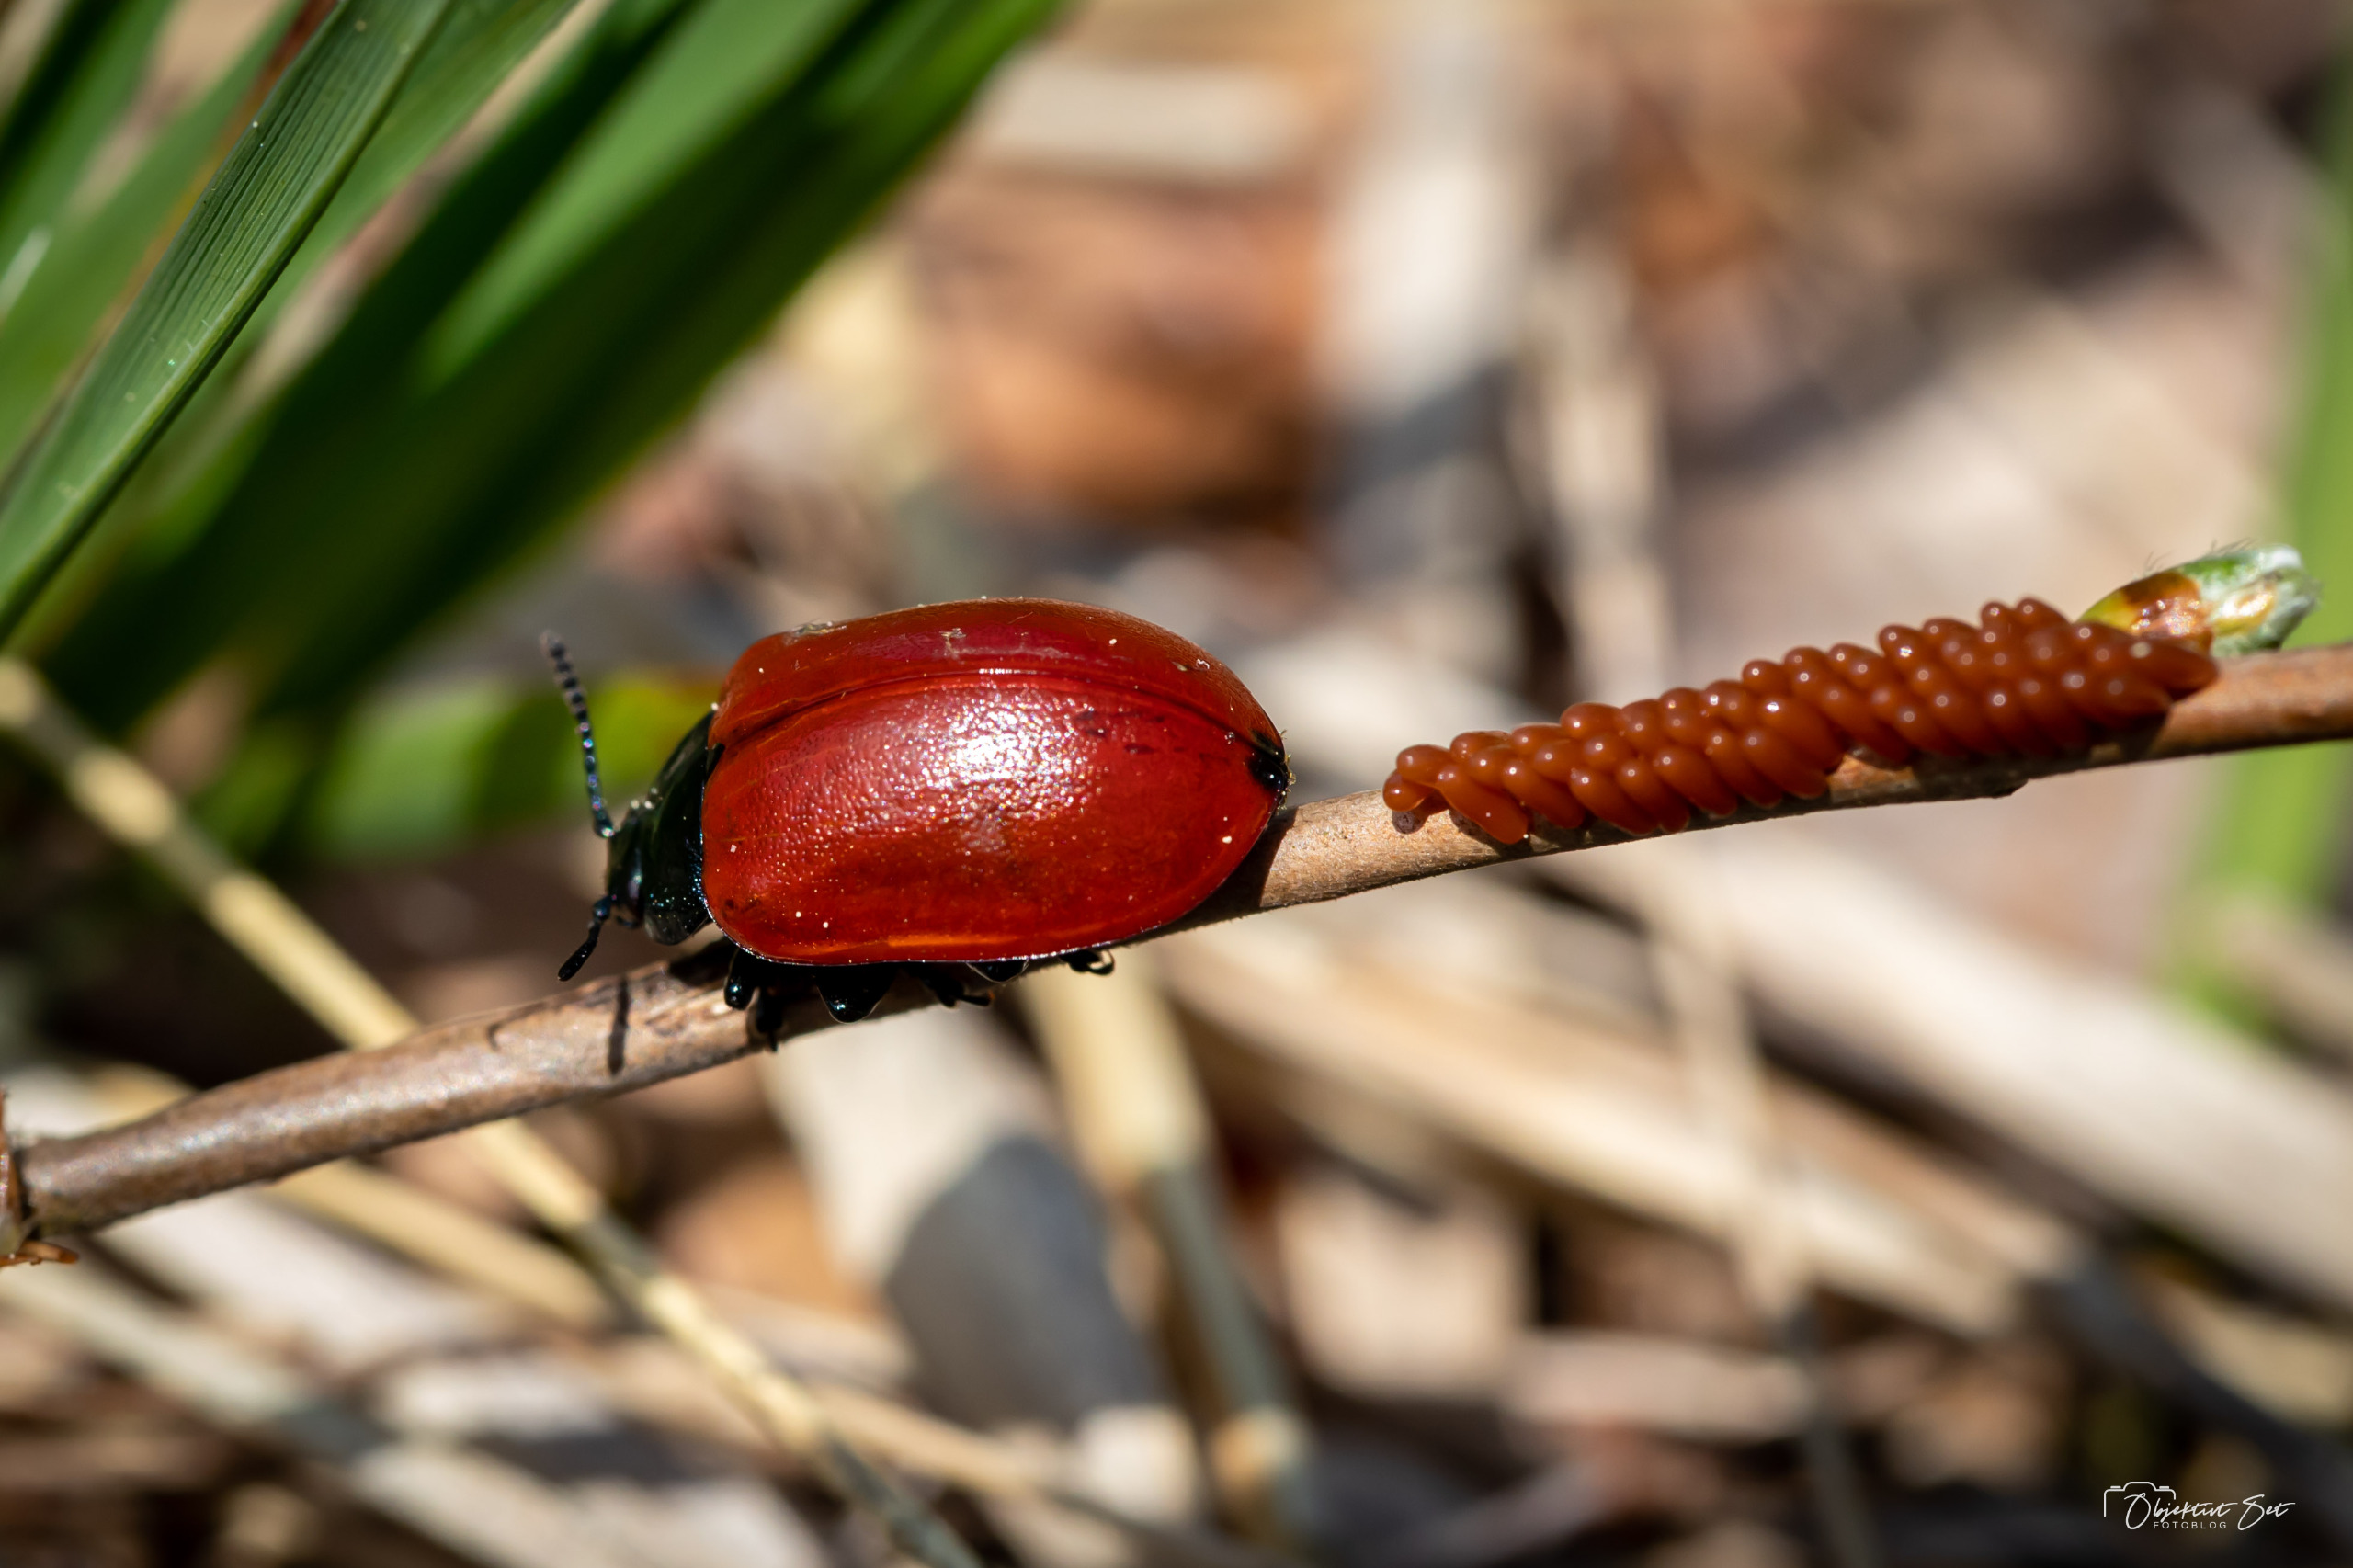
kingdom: Animalia
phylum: Arthropoda
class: Insecta
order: Coleoptera
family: Chrysomelidae
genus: Chrysomela
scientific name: Chrysomela populi
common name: Poppelbladbille
